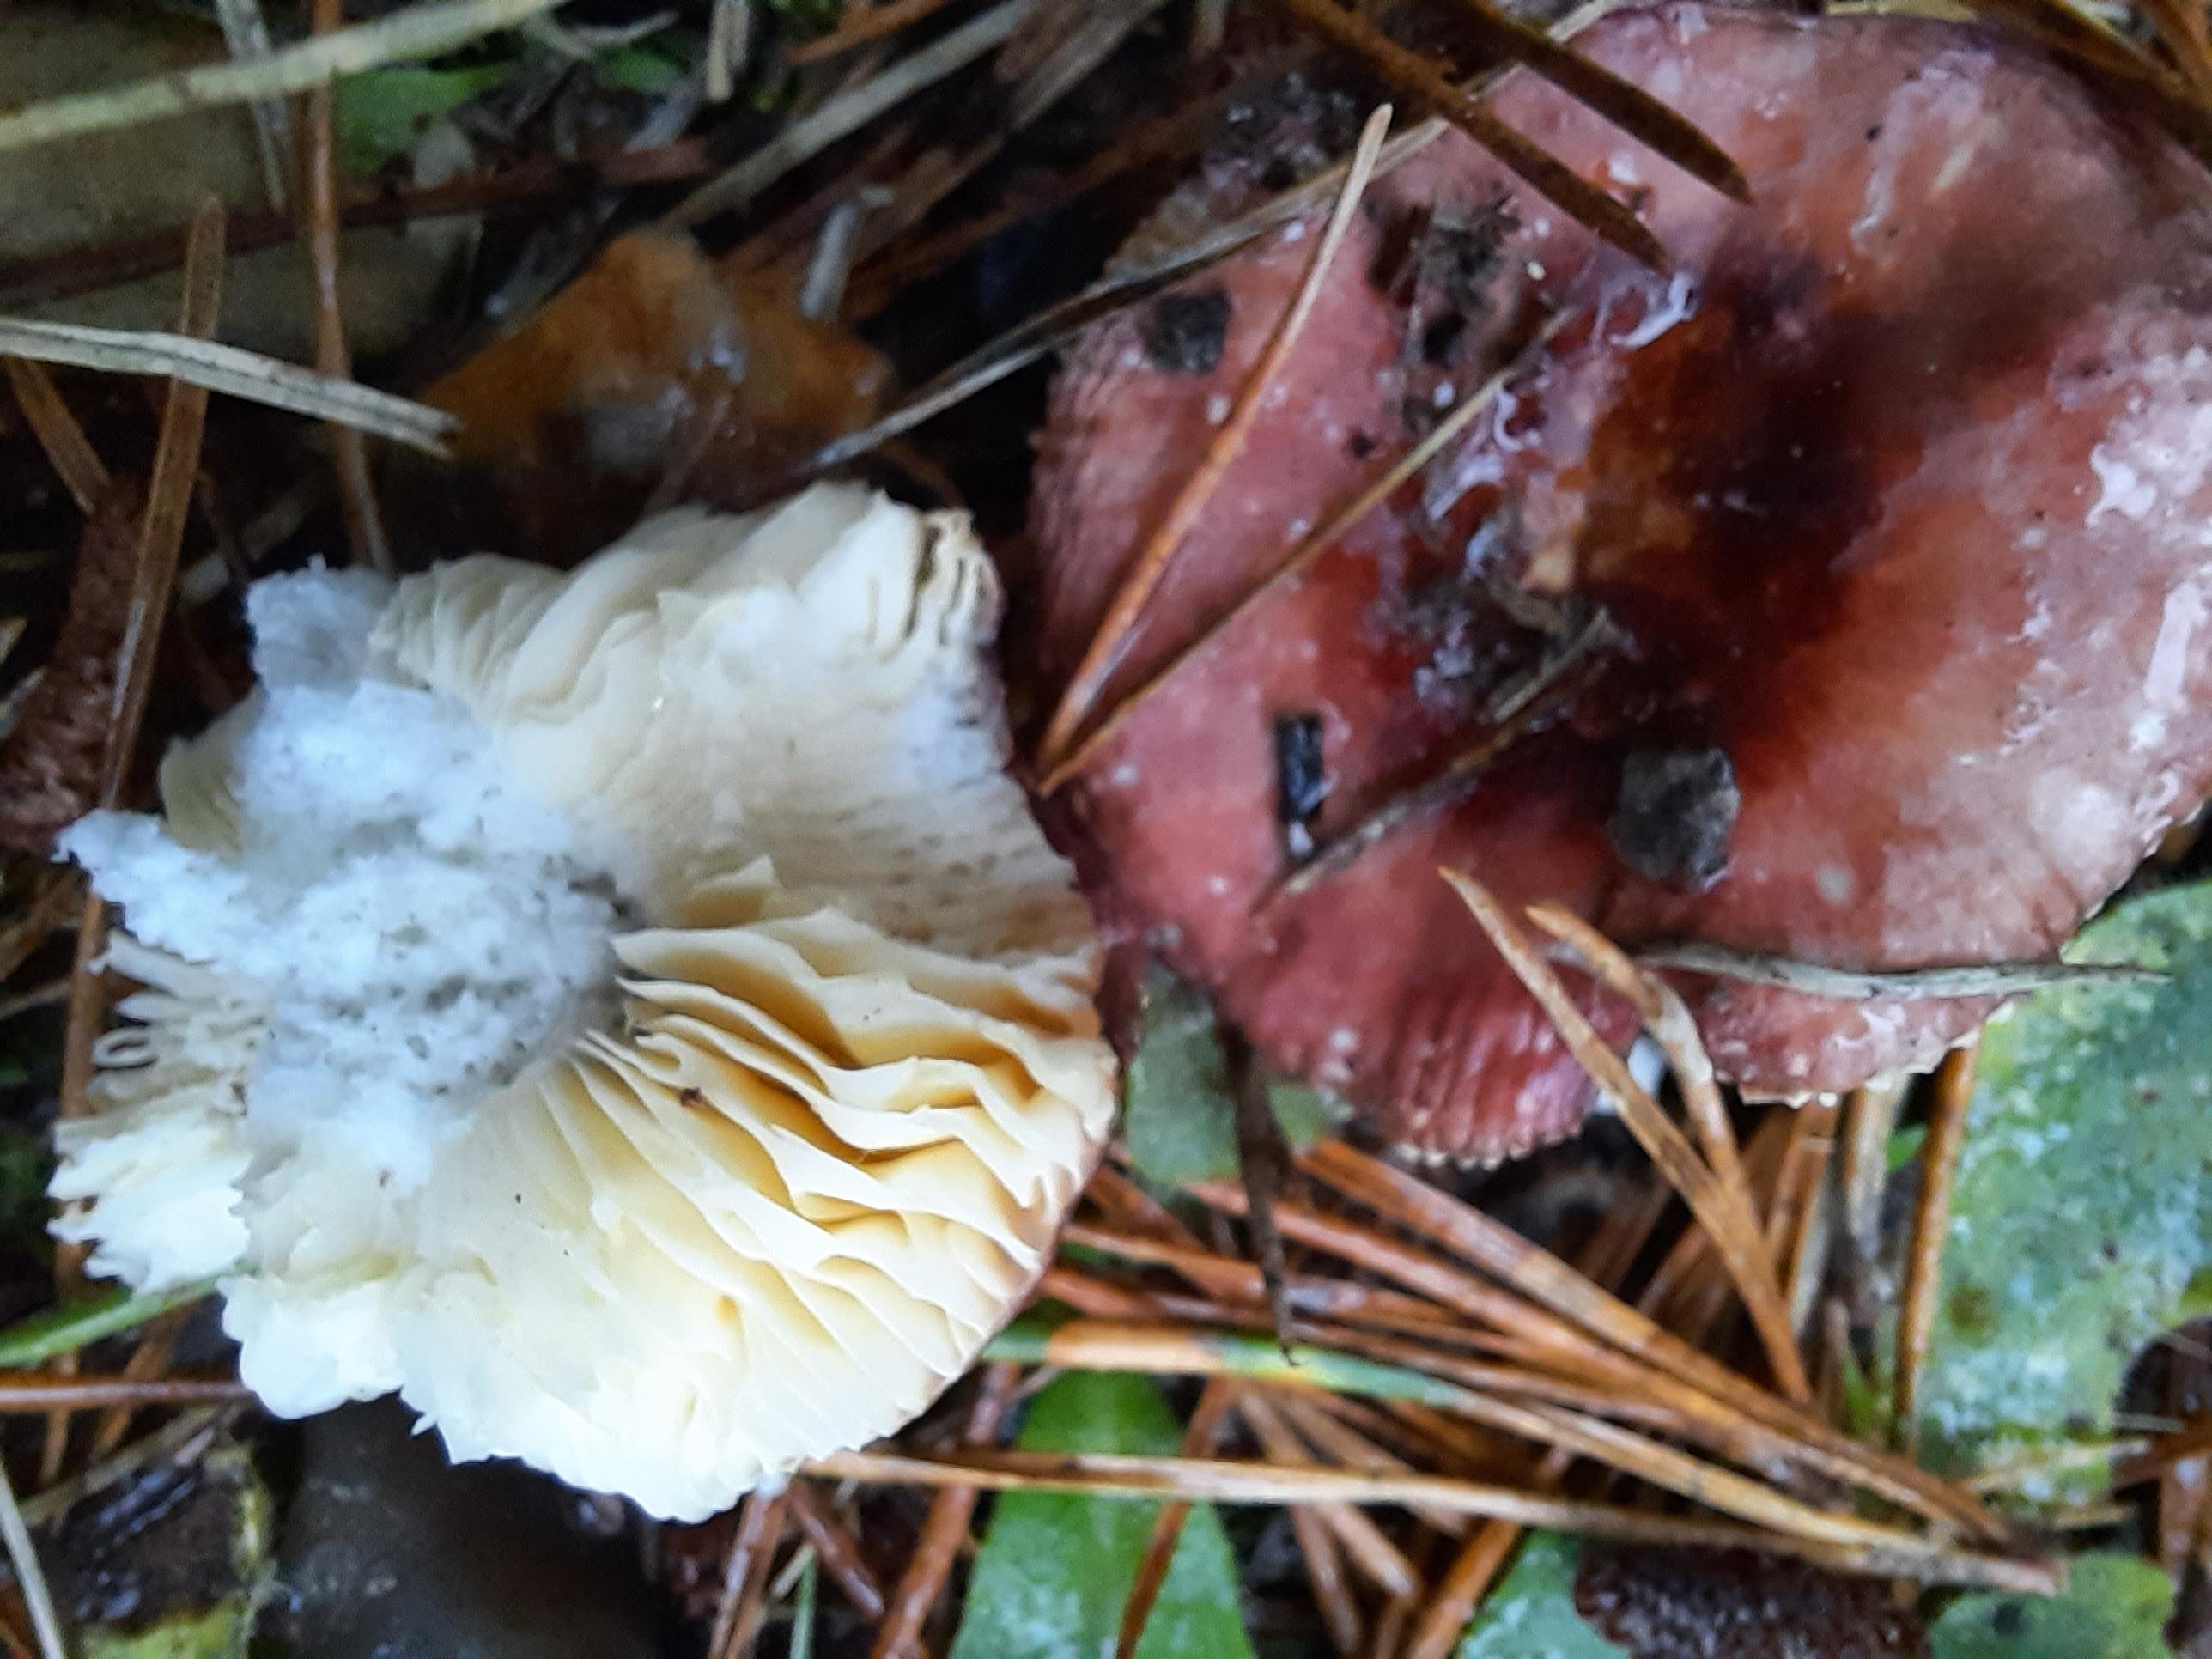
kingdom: Fungi
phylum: Basidiomycota
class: Agaricomycetes
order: Russulales
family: Russulaceae
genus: Russula
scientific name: Russula cessans
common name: fyrre-skørhat
